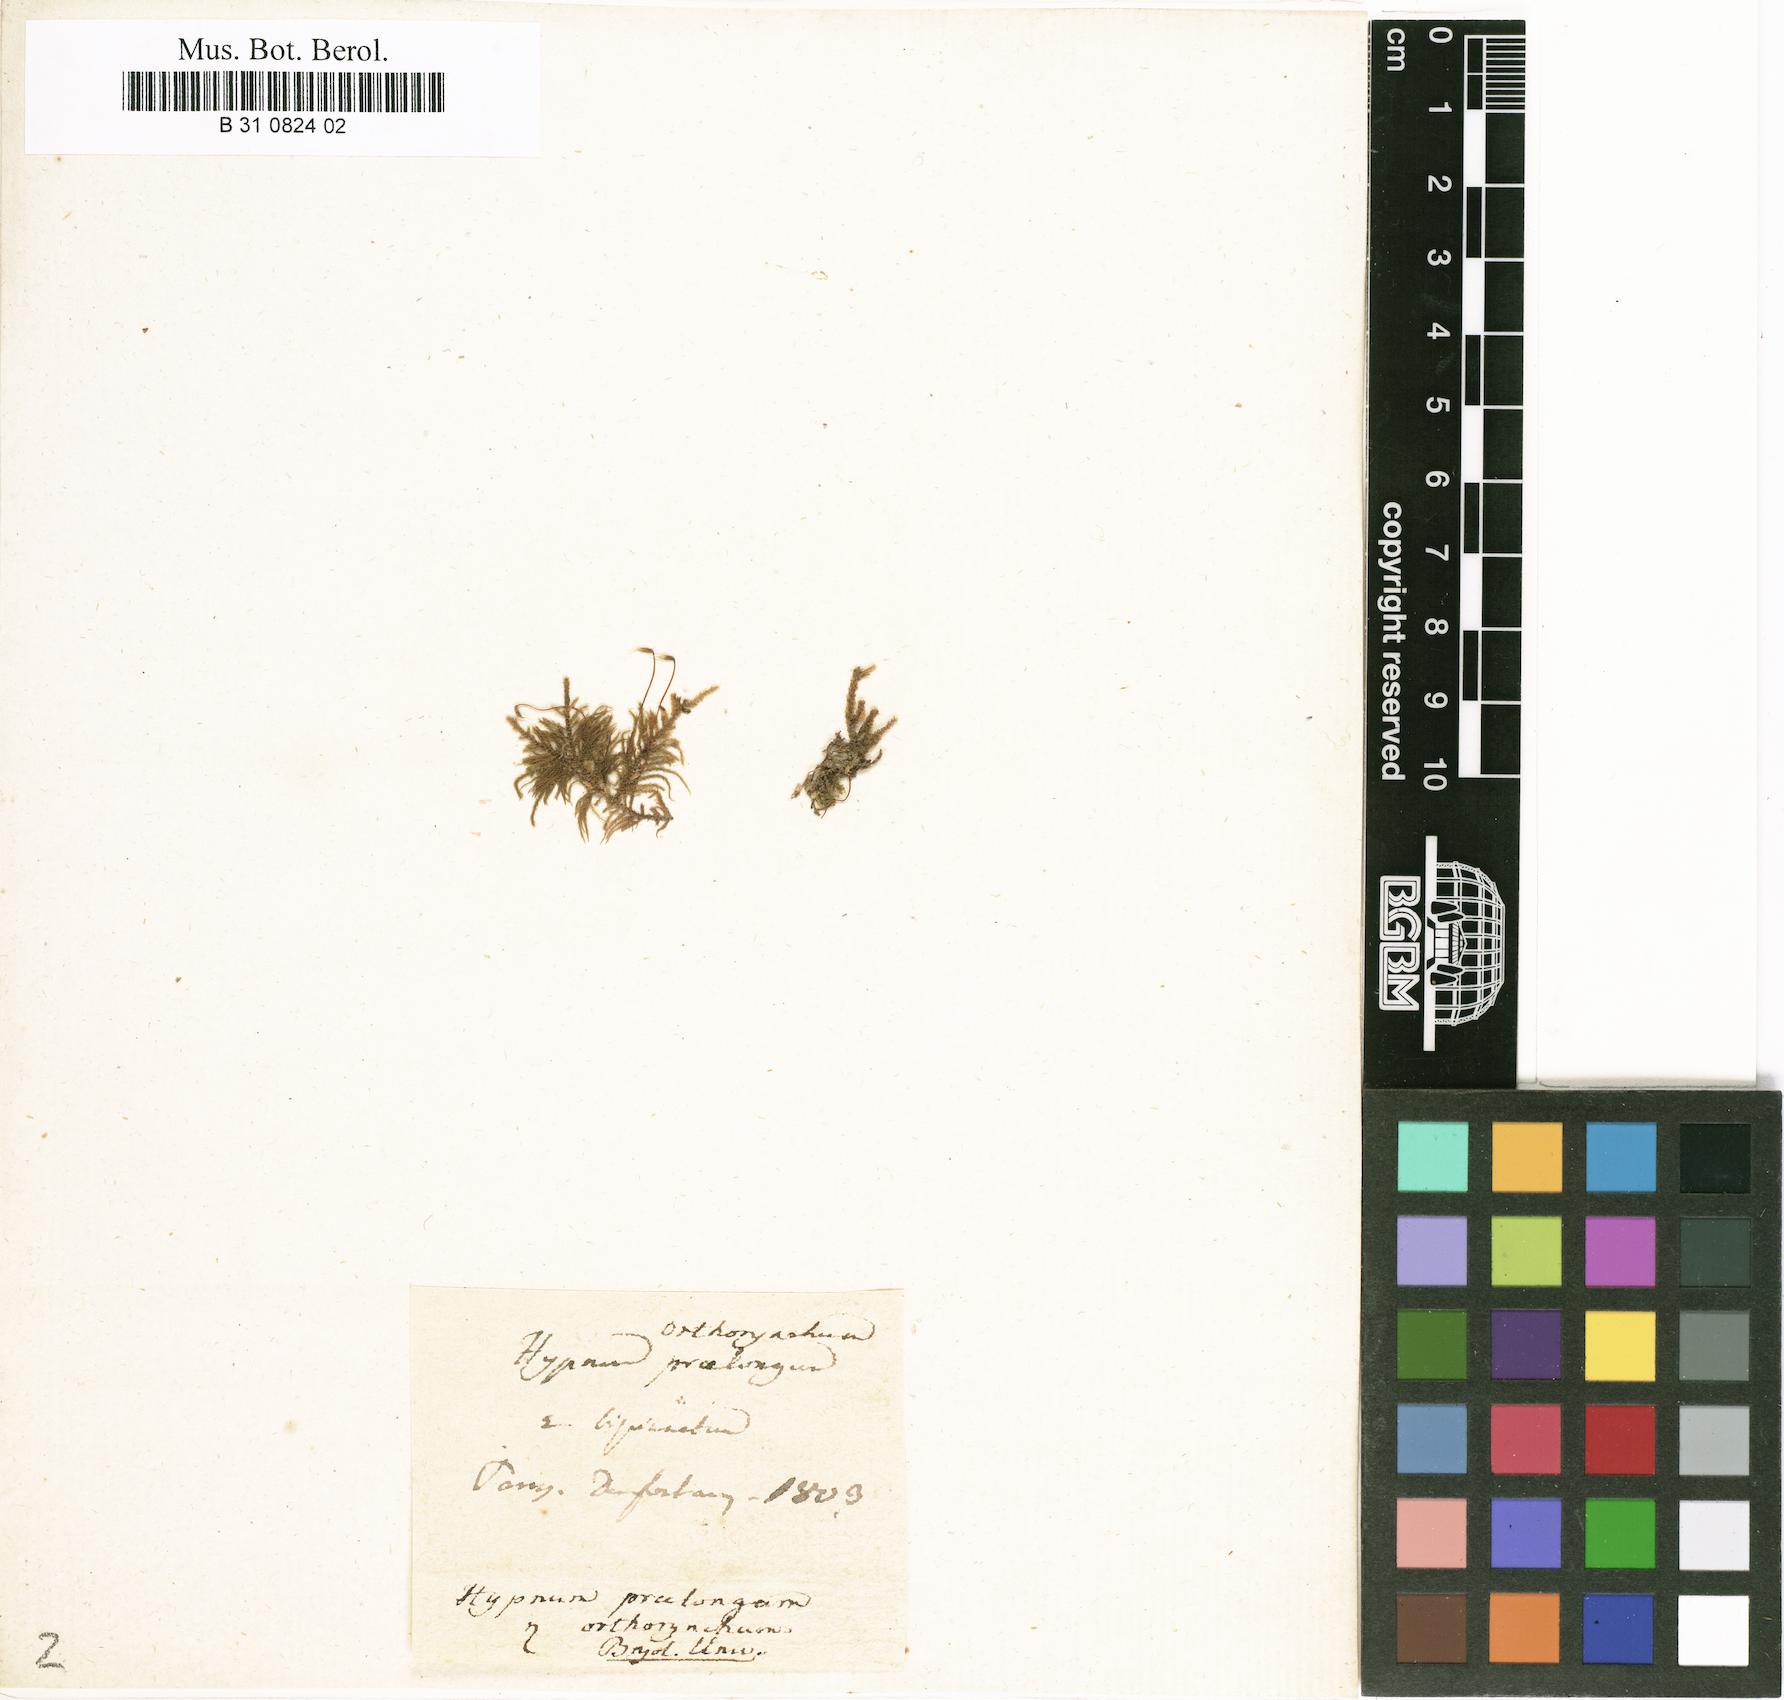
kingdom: Plantae
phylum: Bryophyta
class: Bryopsida
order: Hypnales
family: Brachytheciaceae
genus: Kindbergia
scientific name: Kindbergia praelonga
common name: Slender beaked moss
